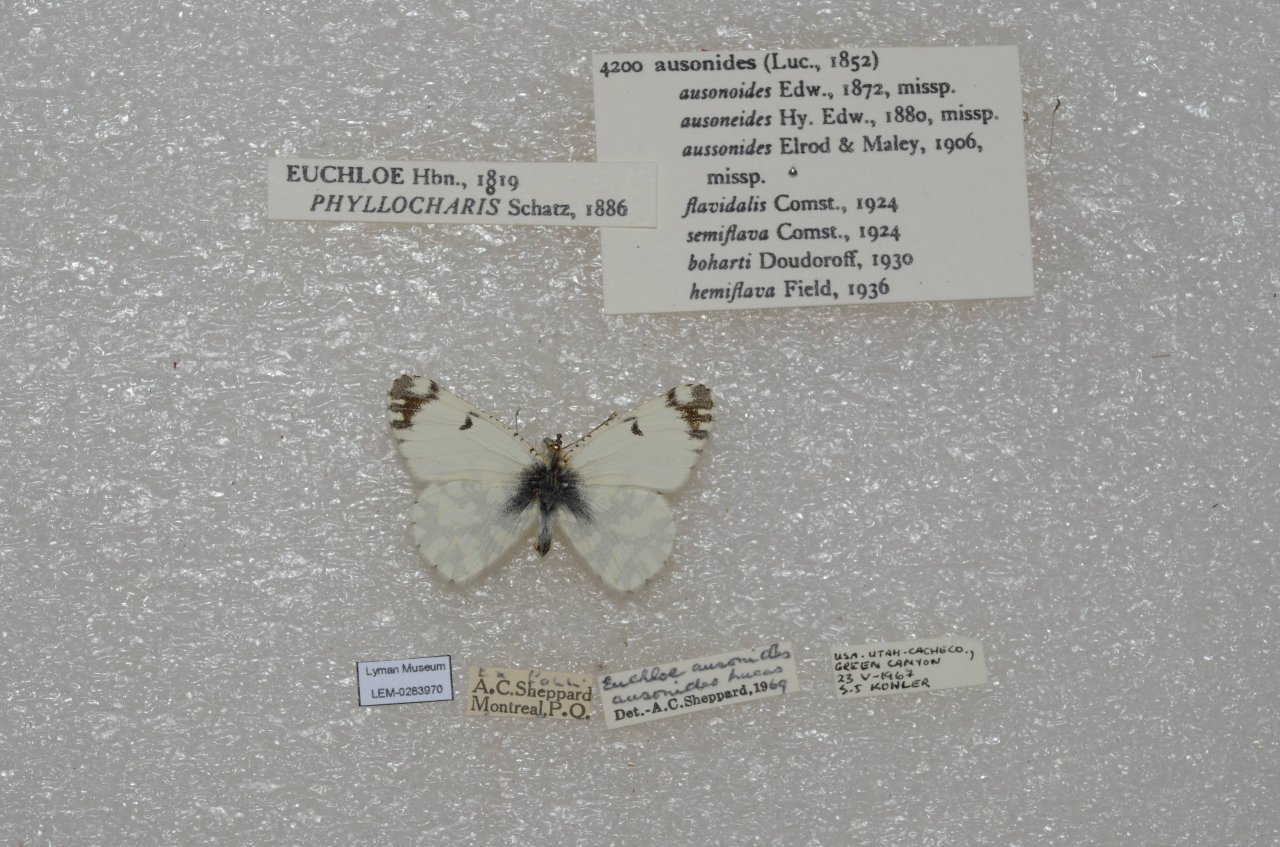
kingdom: Animalia
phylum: Arthropoda
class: Insecta
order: Lepidoptera
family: Pieridae
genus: Euchloe
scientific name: Euchloe ausonides
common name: Large Marble
